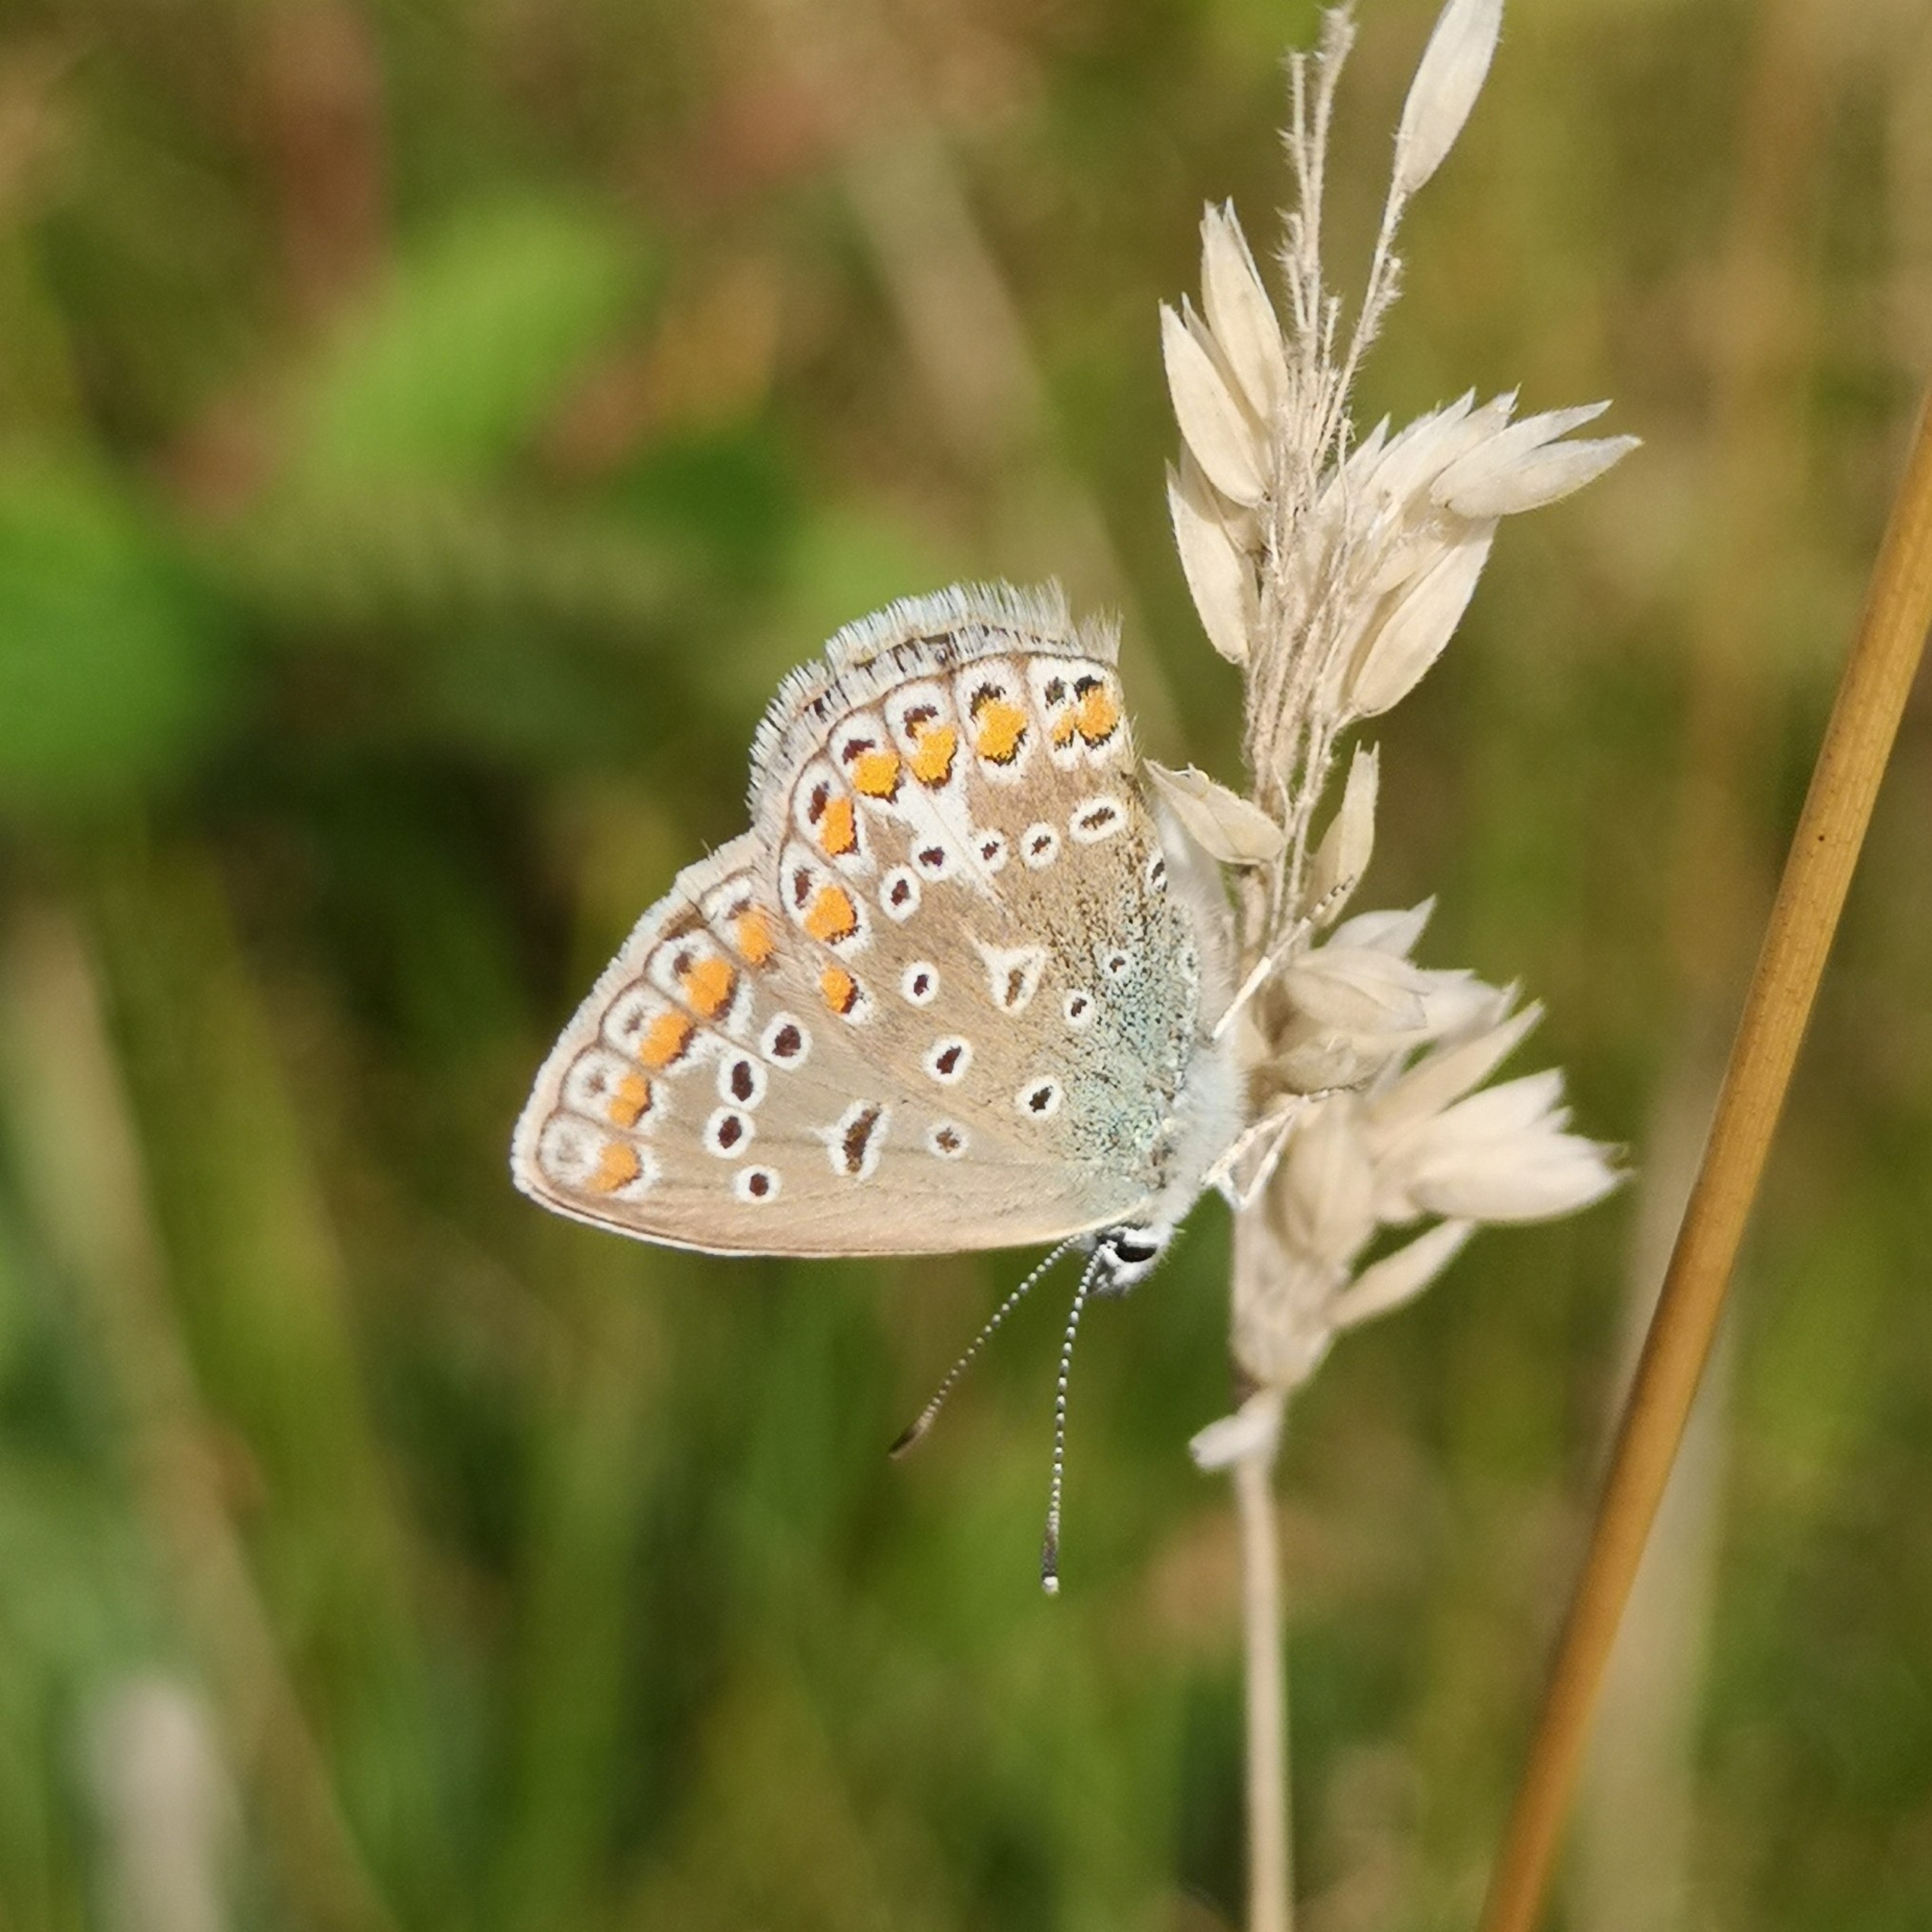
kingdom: Animalia
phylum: Arthropoda
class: Insecta
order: Lepidoptera
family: Lycaenidae
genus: Polyommatus
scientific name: Polyommatus icarus
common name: Almindelig blåfugl
